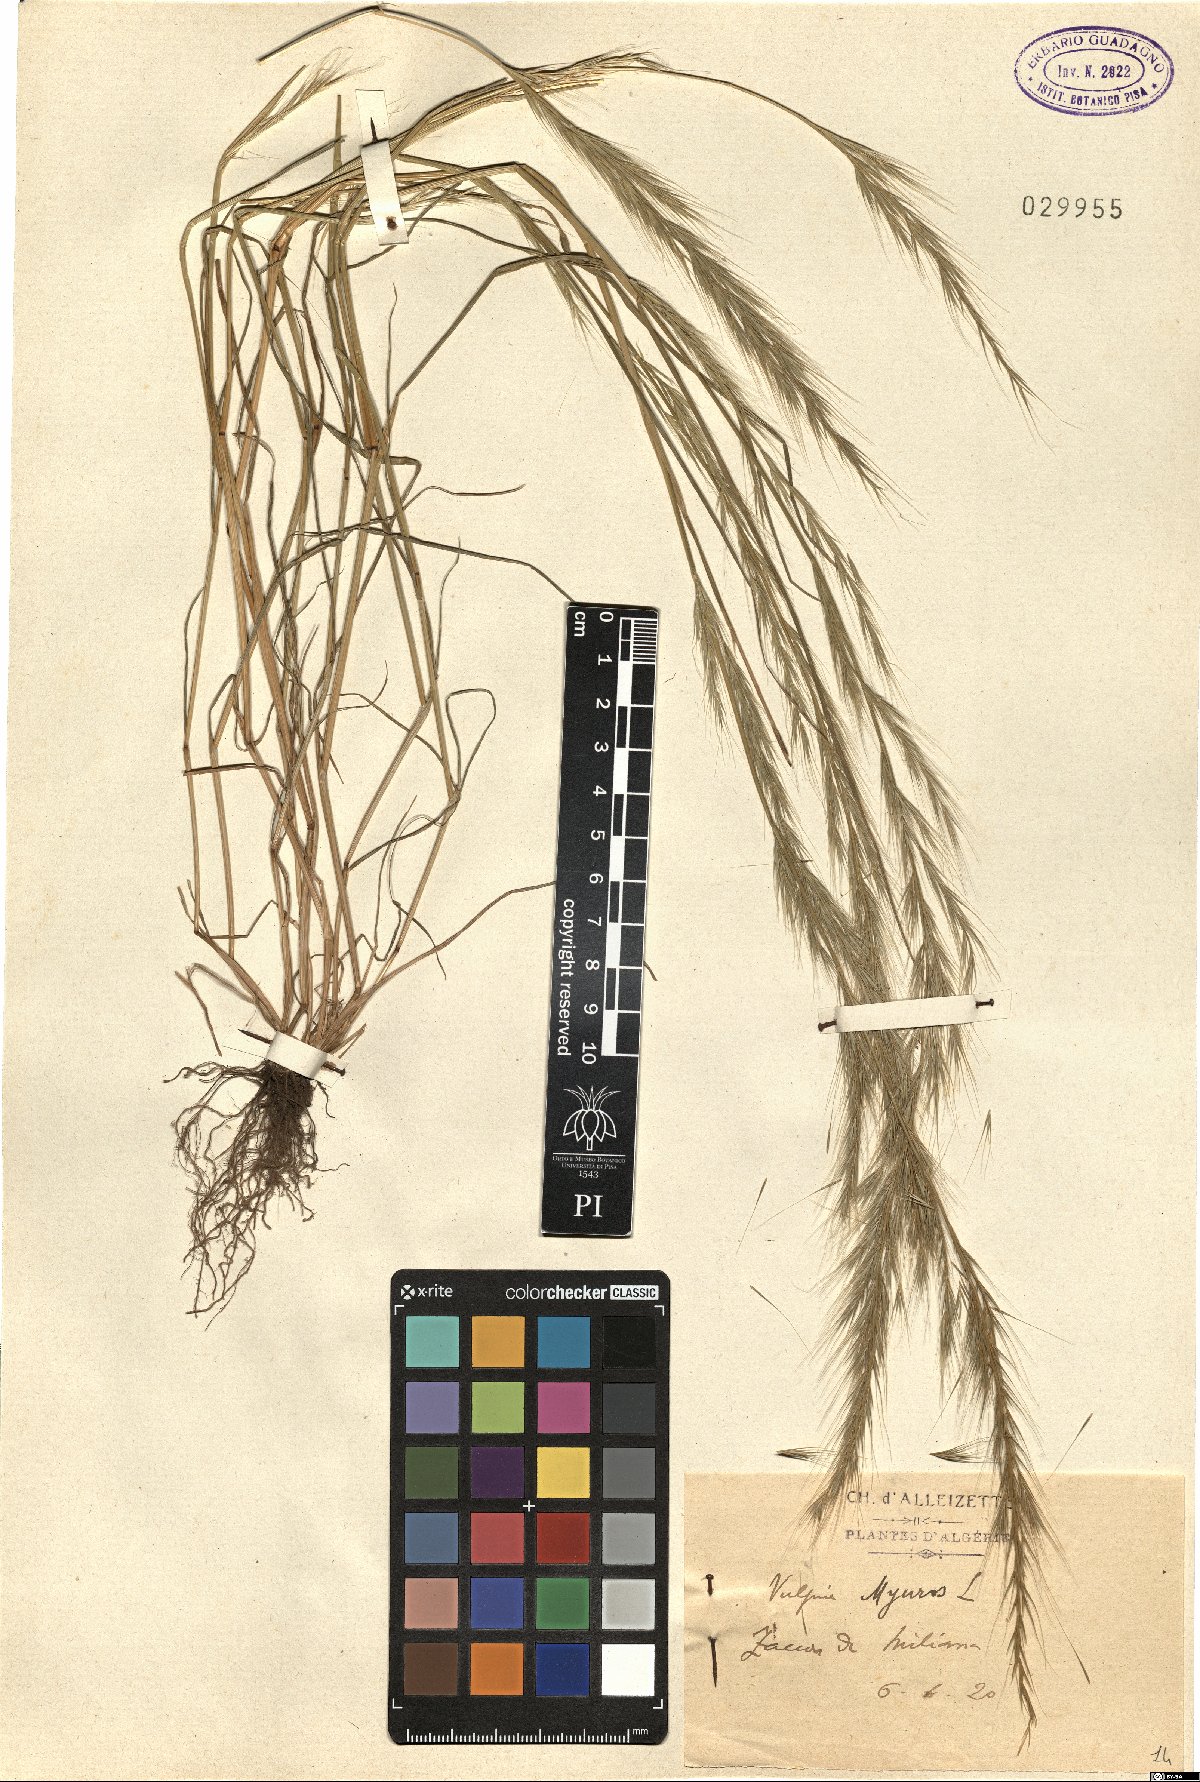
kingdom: Plantae
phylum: Tracheophyta
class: Liliopsida
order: Poales
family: Poaceae
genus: Festuca
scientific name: Festuca myuros
